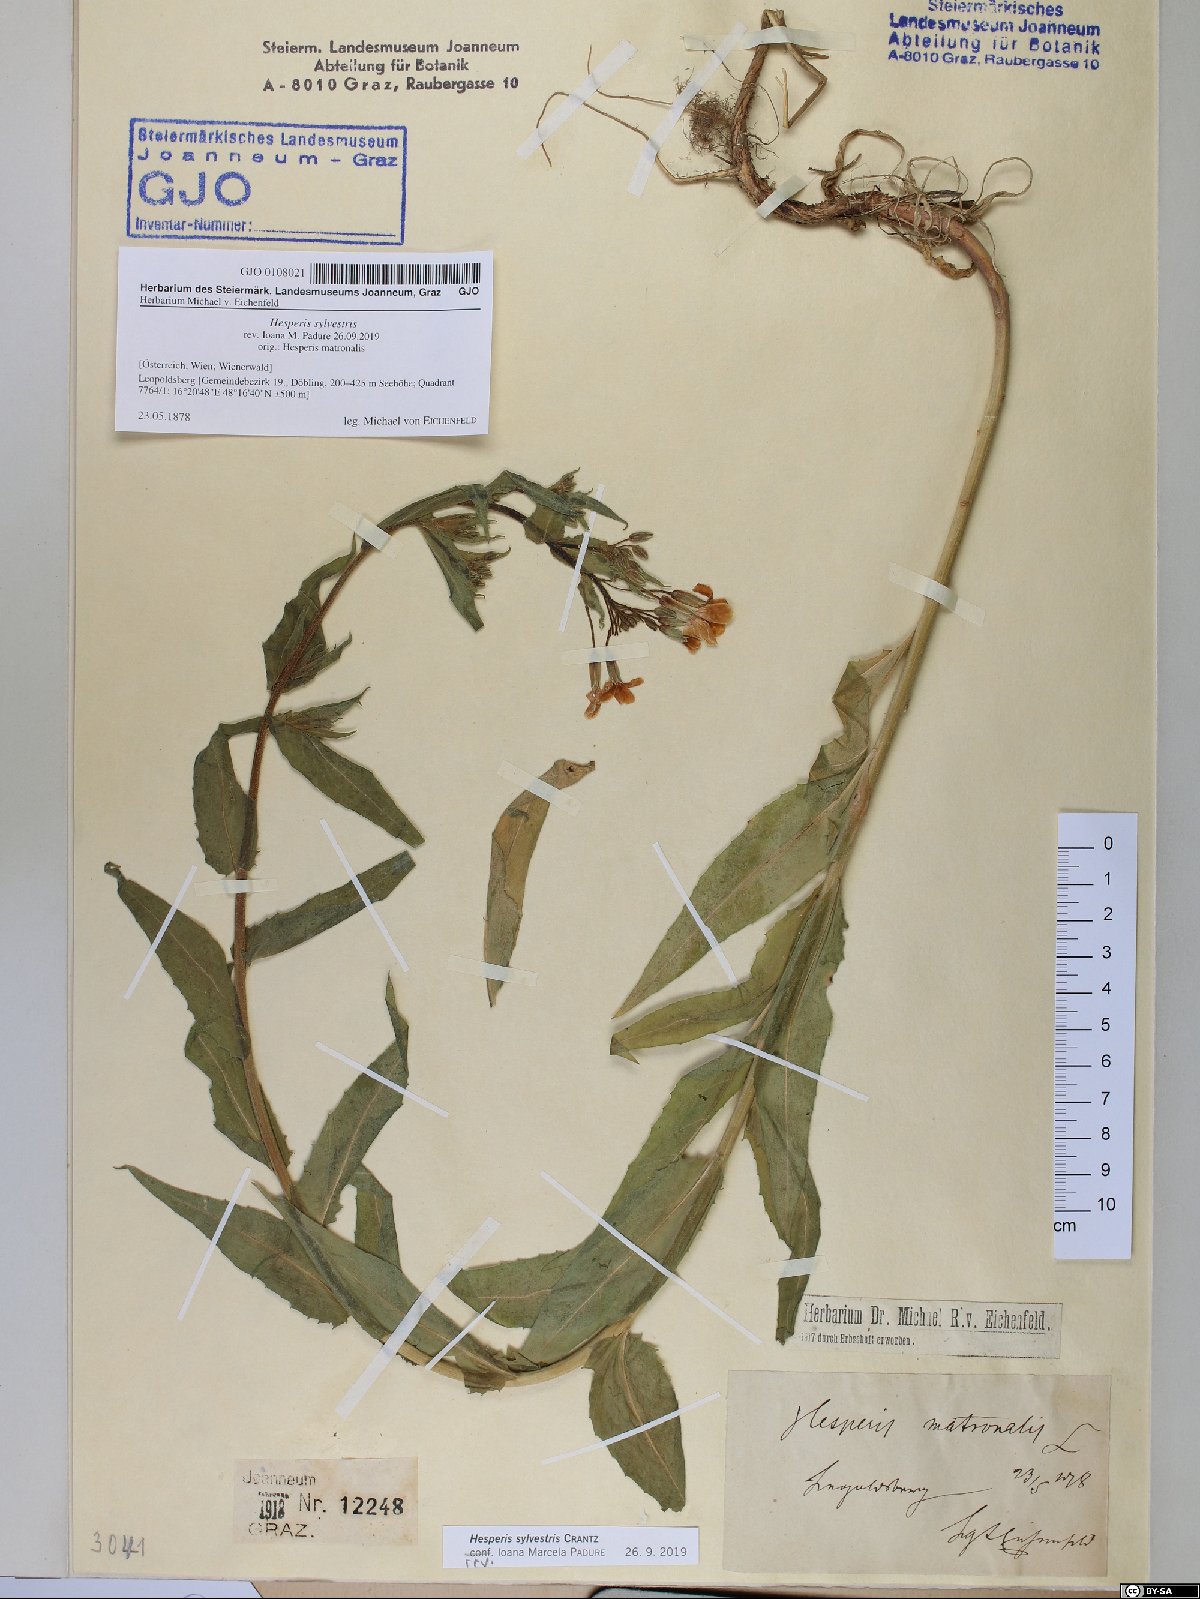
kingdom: Plantae
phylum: Tracheophyta
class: Magnoliopsida
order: Brassicales
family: Brassicaceae
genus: Hesperis
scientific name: Hesperis sylvestris
